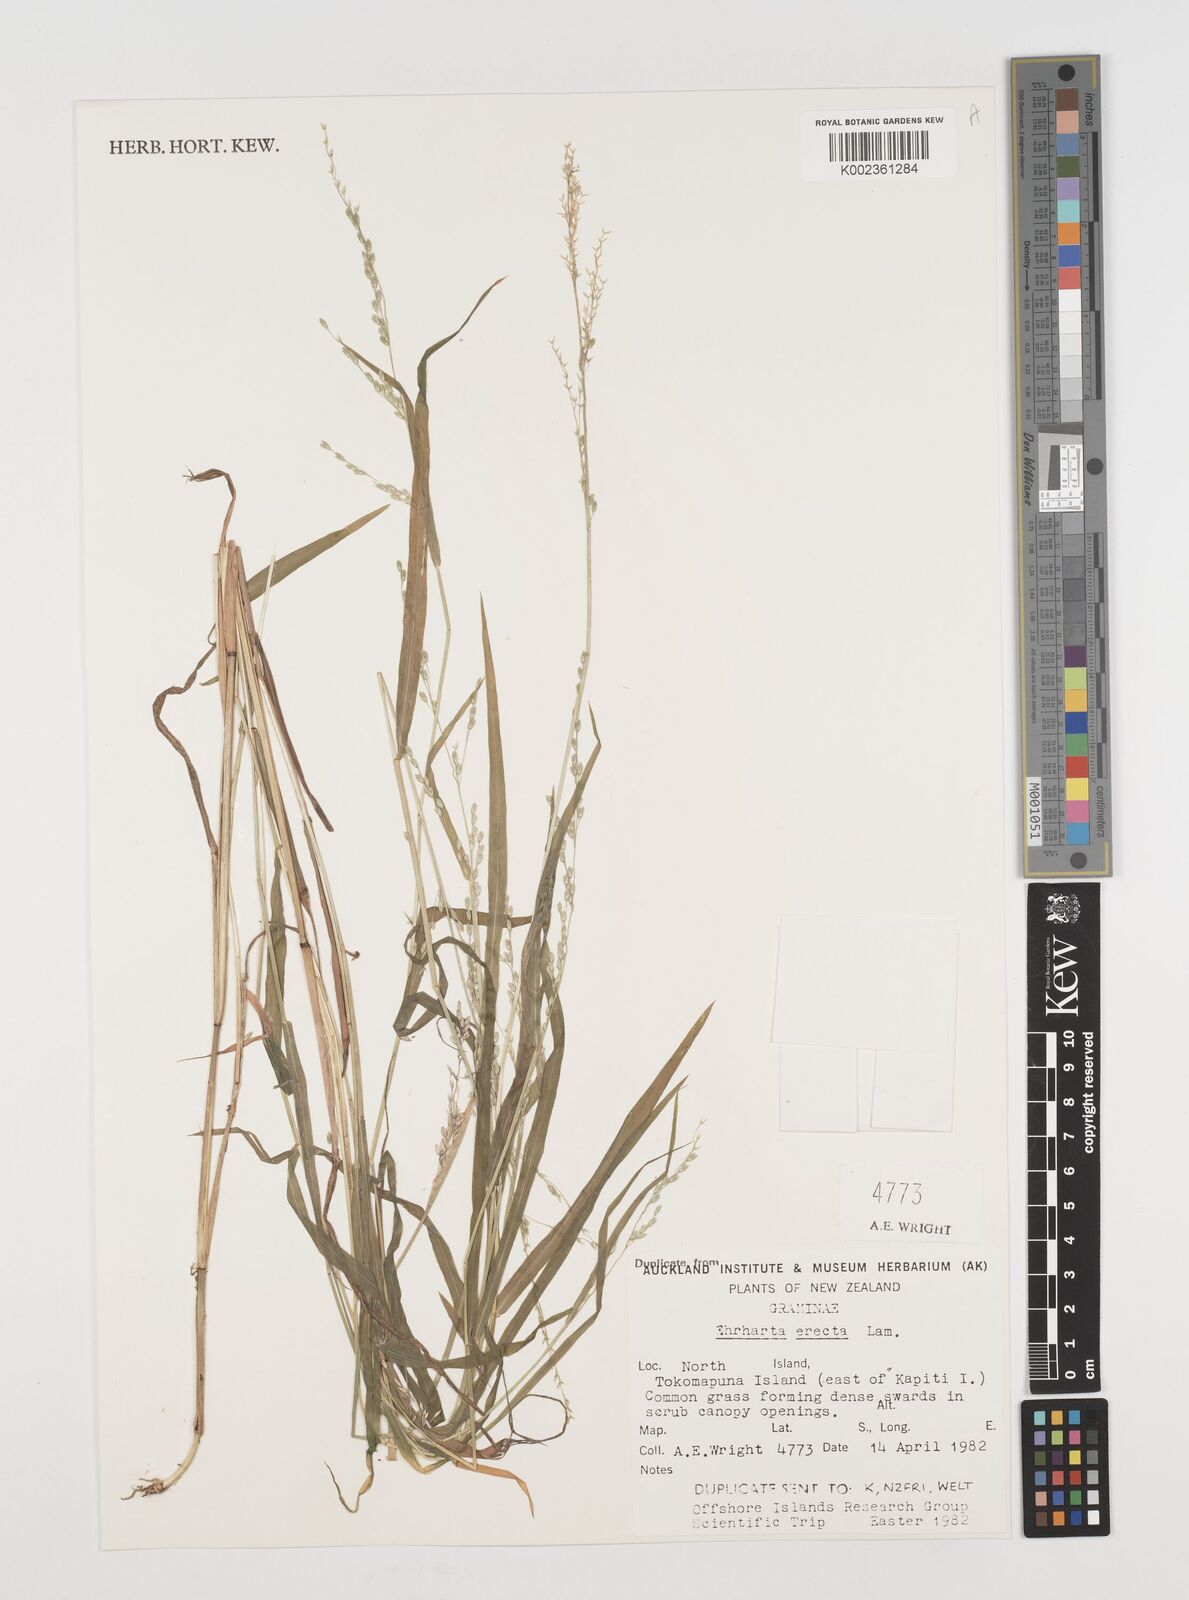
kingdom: Plantae
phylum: Tracheophyta
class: Liliopsida
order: Poales
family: Poaceae
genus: Ehrharta
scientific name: Ehrharta erecta
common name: Panic veldtgrass
